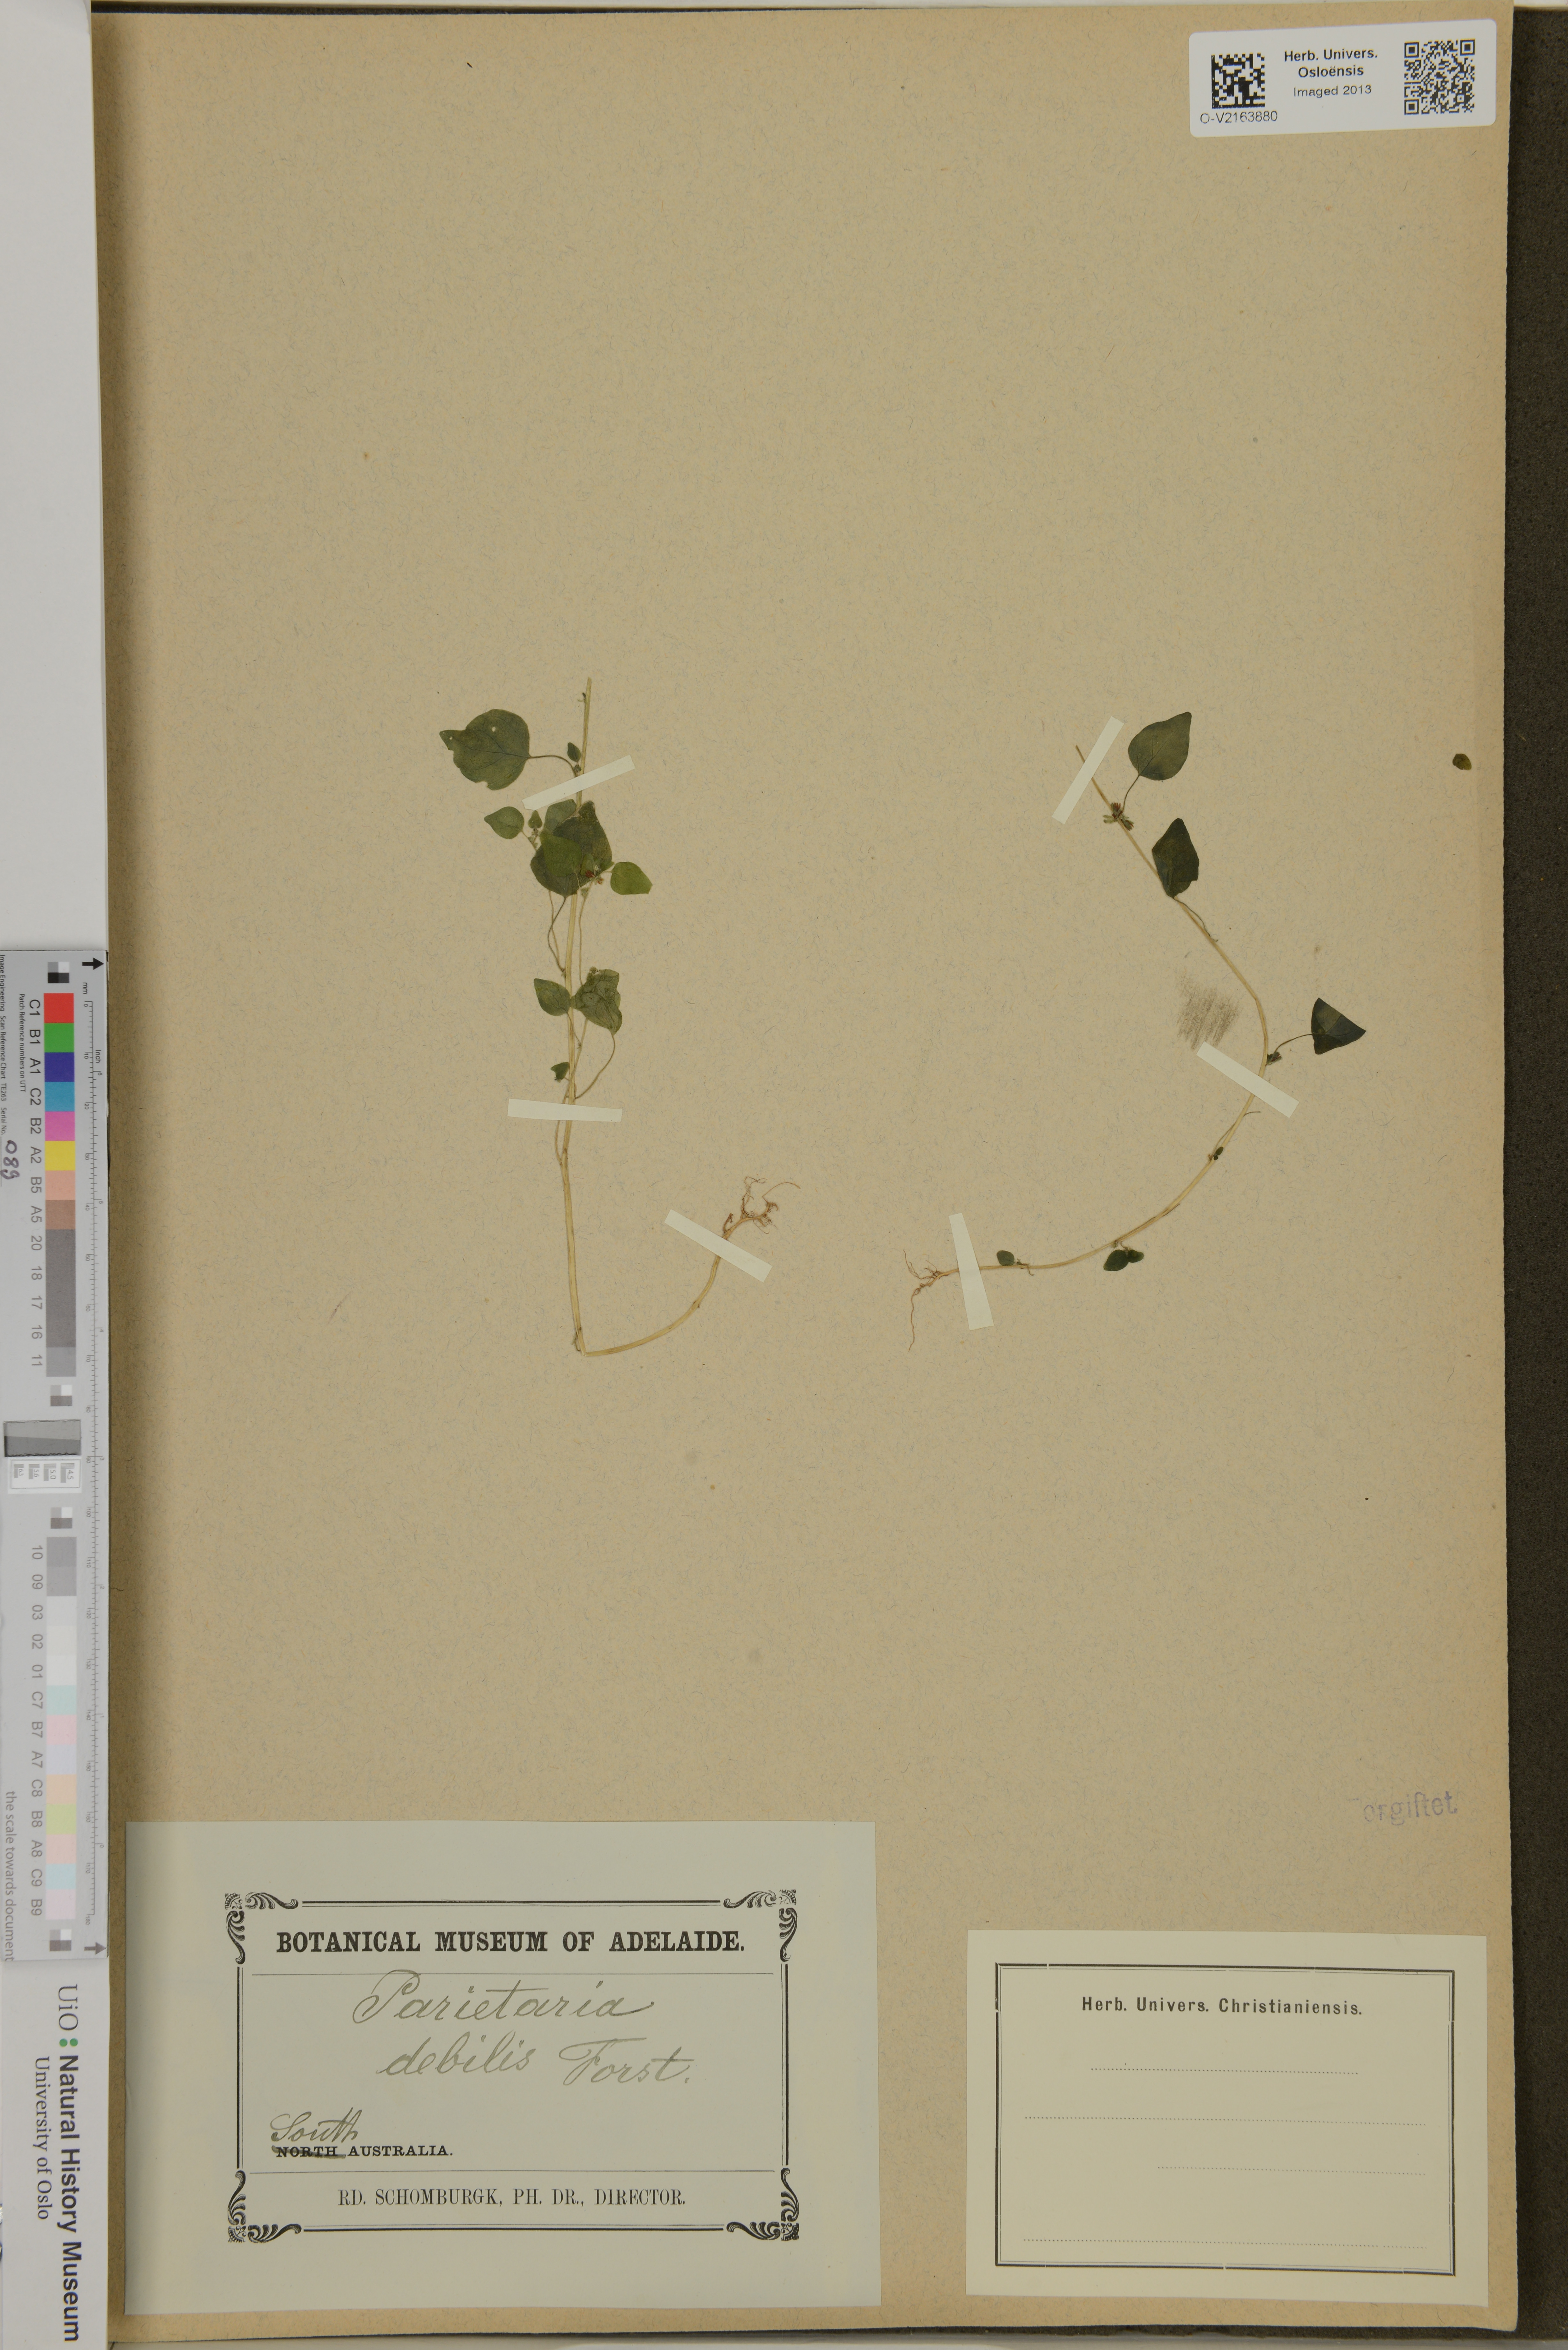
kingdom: Plantae
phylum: Tracheophyta
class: Magnoliopsida
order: Rosales
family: Urticaceae
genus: Parietaria
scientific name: Parietaria debilis
